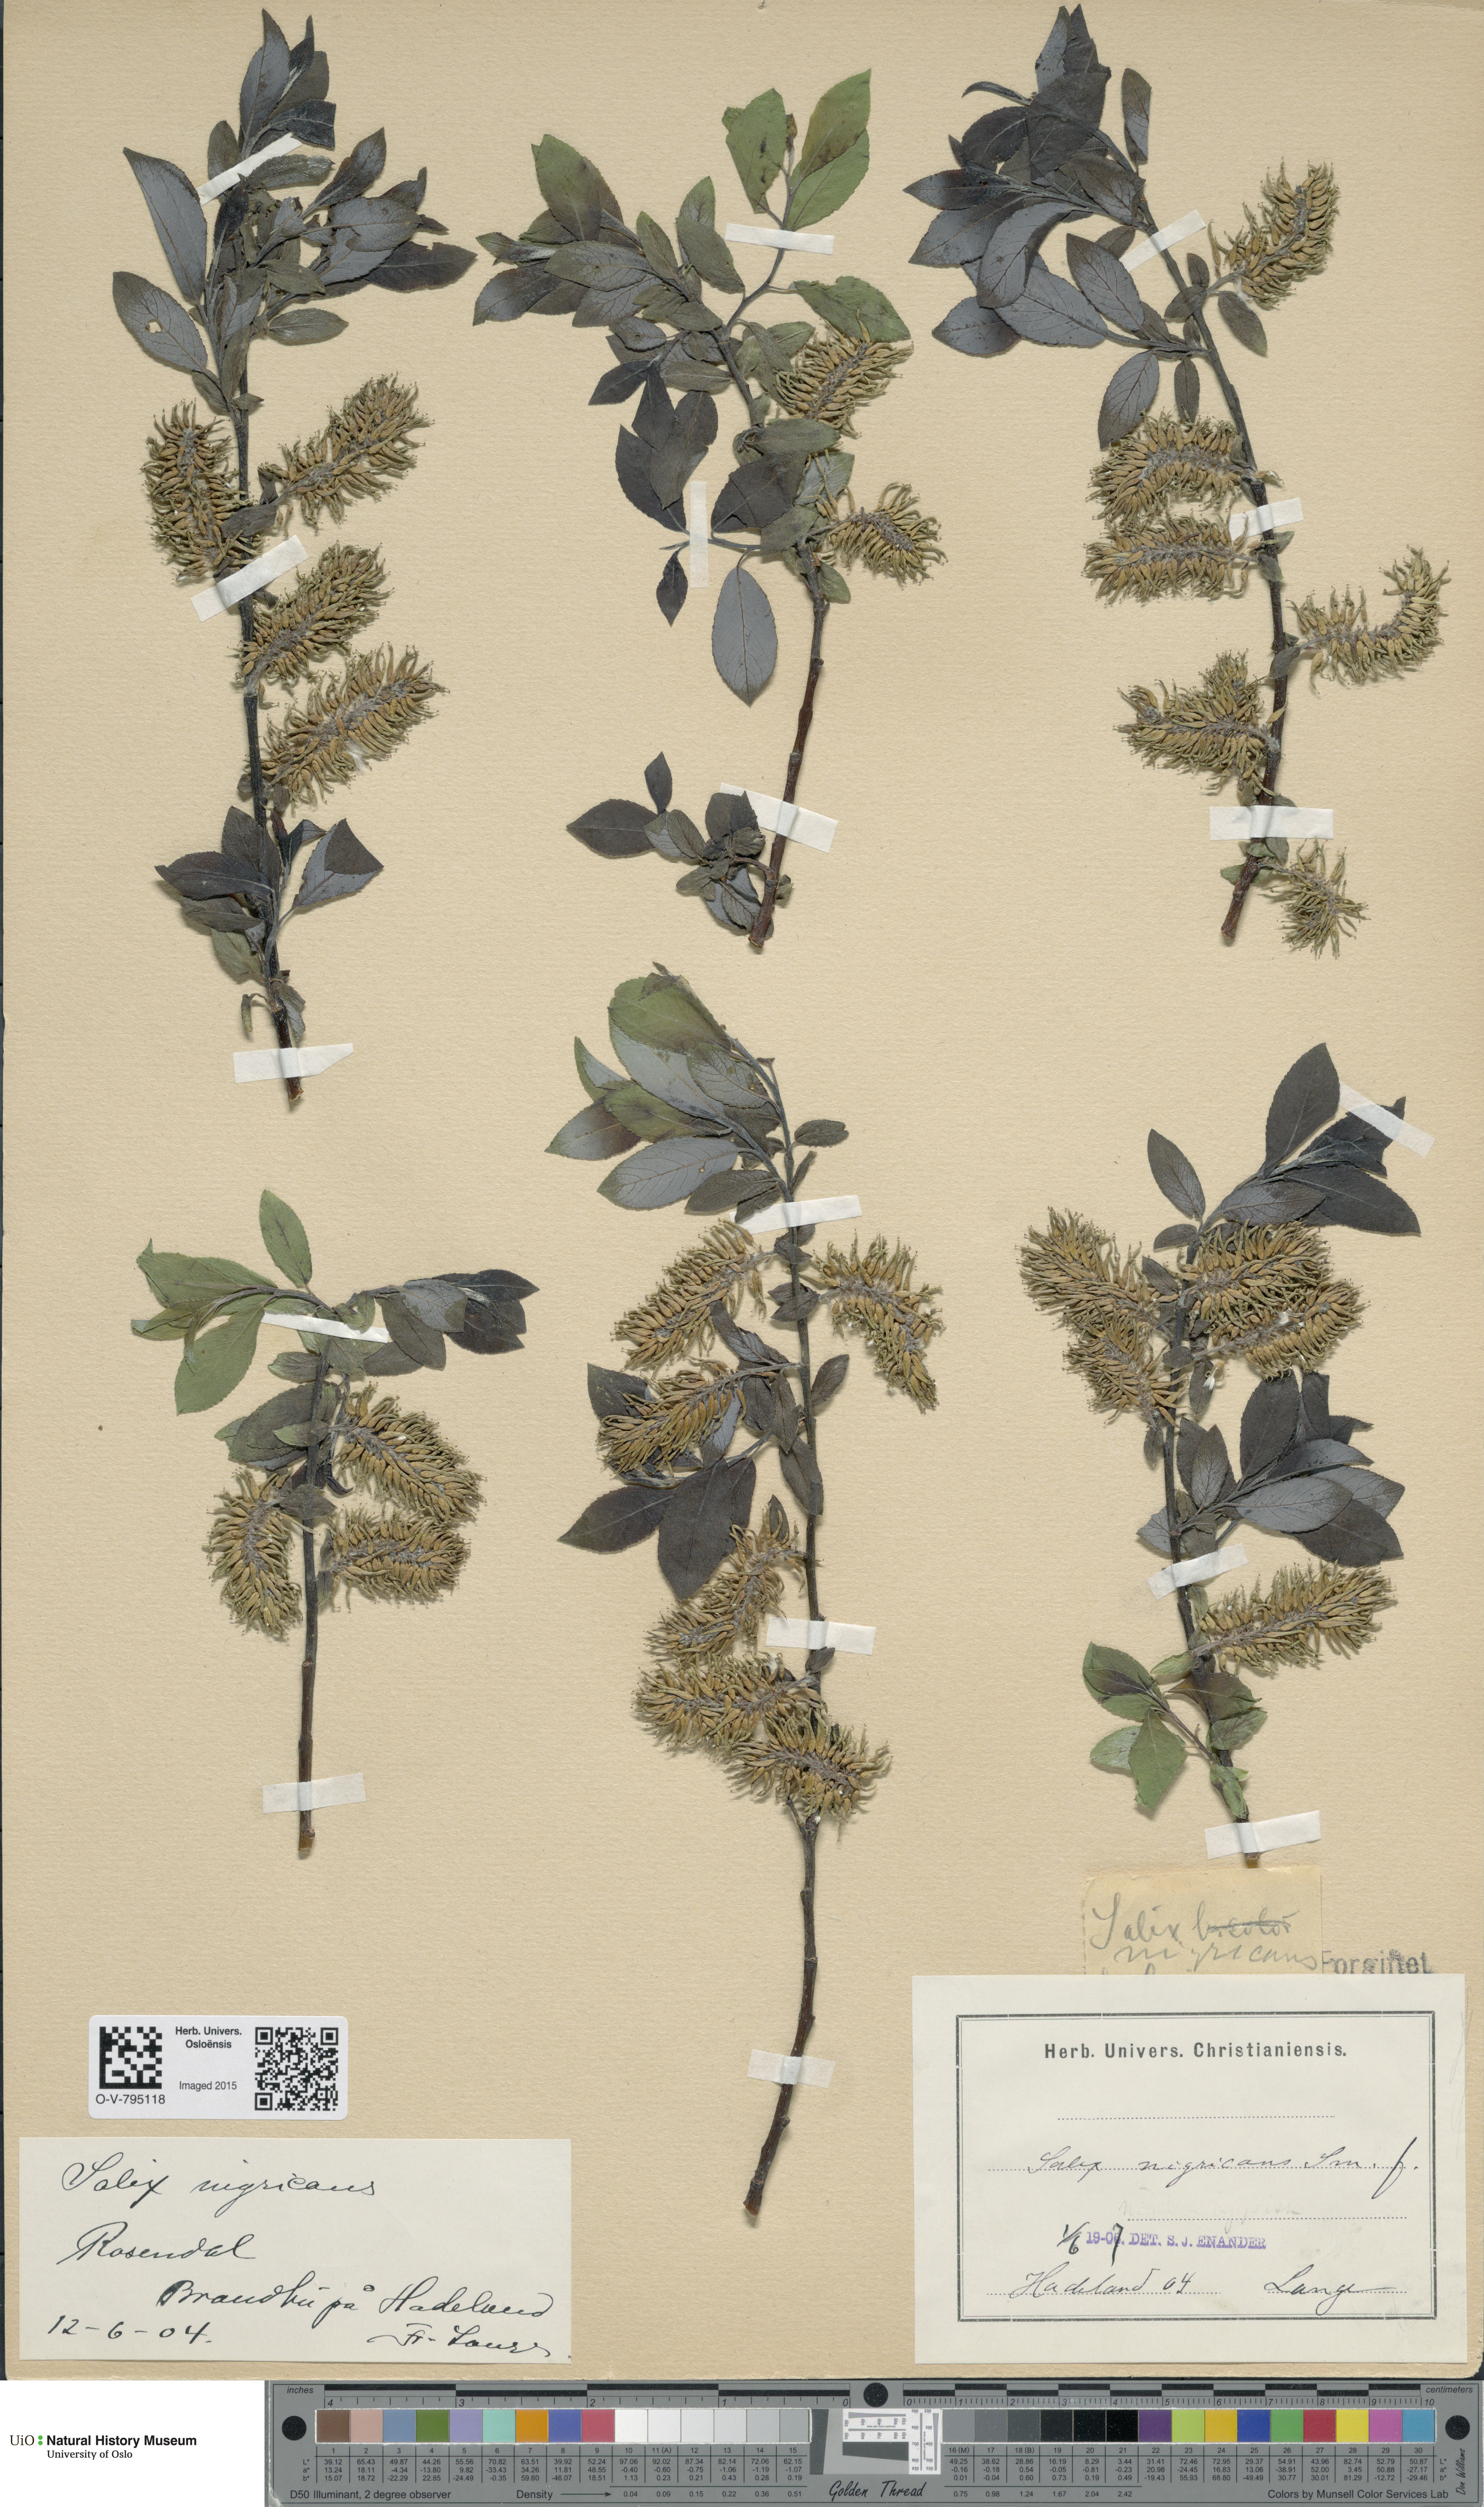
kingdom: Plantae
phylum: Tracheophyta
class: Magnoliopsida
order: Malpighiales
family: Salicaceae
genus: Salix
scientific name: Salix myrsinifolia
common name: Dark-leaved willow
